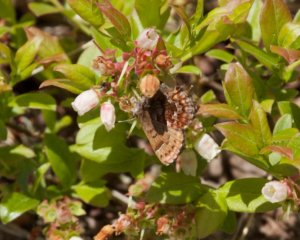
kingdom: Animalia
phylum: Arthropoda
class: Insecta
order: Lepidoptera
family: Lycaenidae
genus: Incisalia
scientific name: Incisalia niphon
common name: Eastern Pine Elfin
